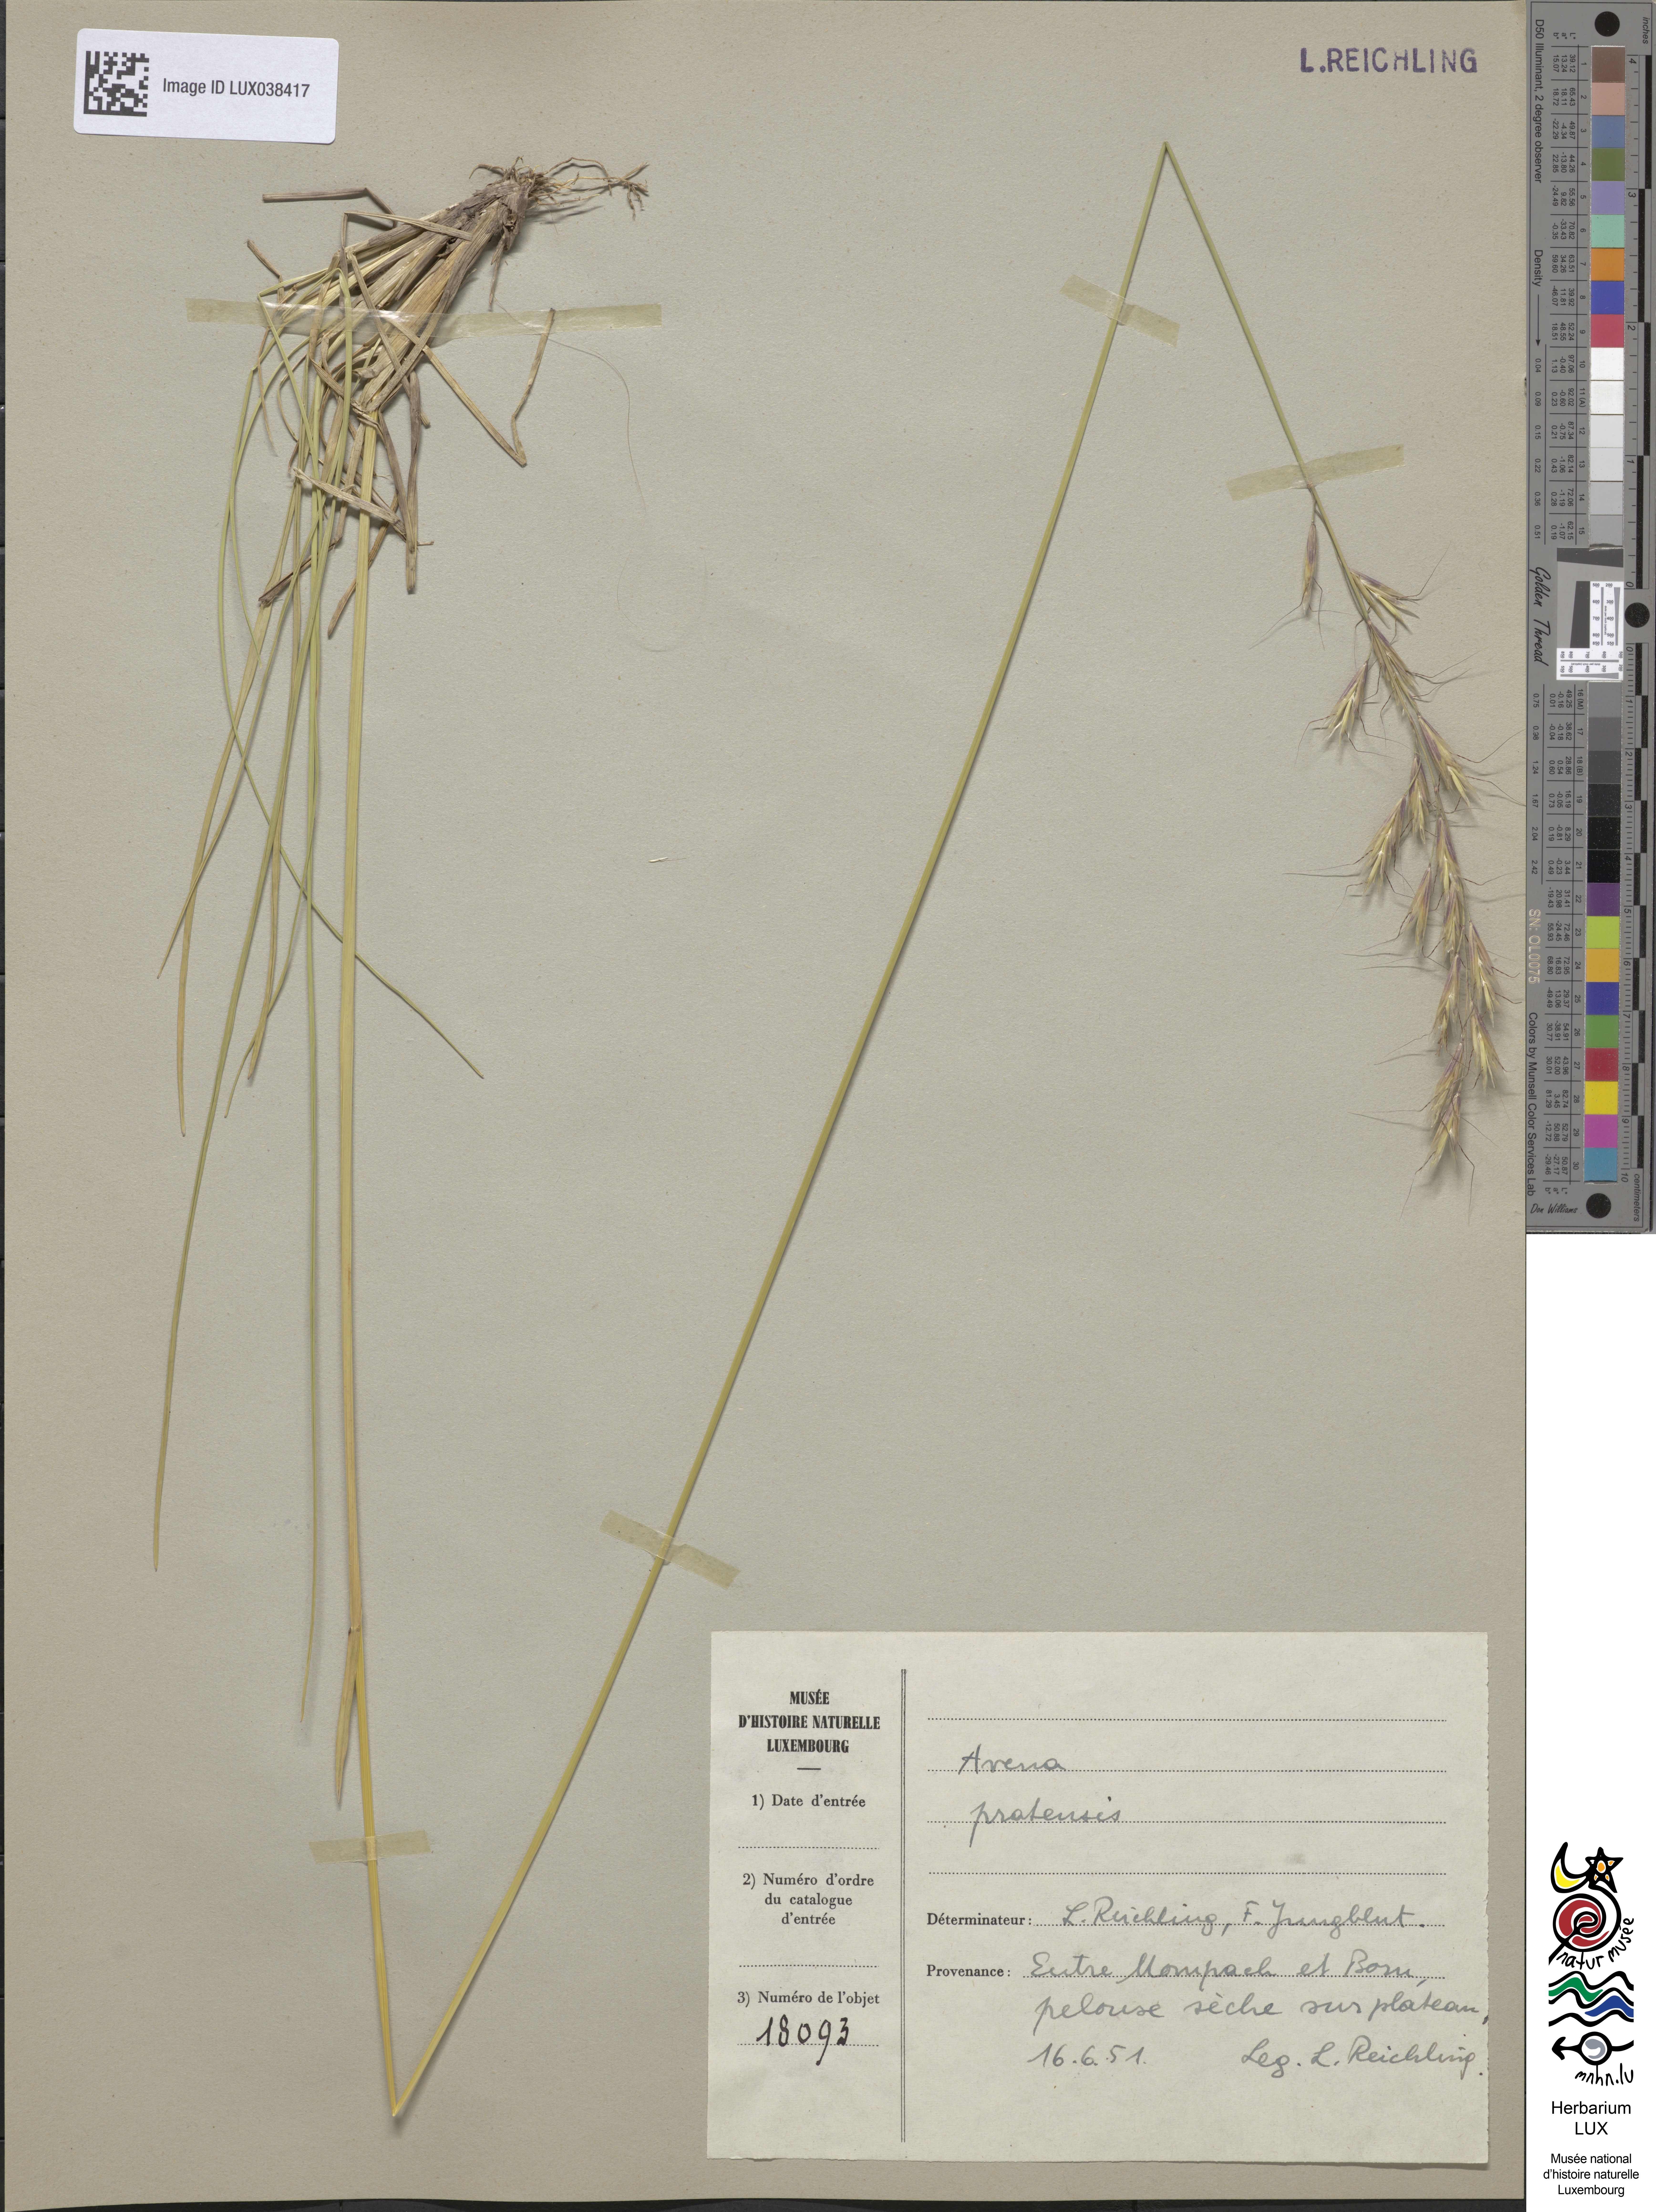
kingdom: Plantae
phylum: Tracheophyta
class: Liliopsida
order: Poales
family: Poaceae
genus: Helictochloa
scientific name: Helictochloa pratensis
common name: Meadow oat grass
